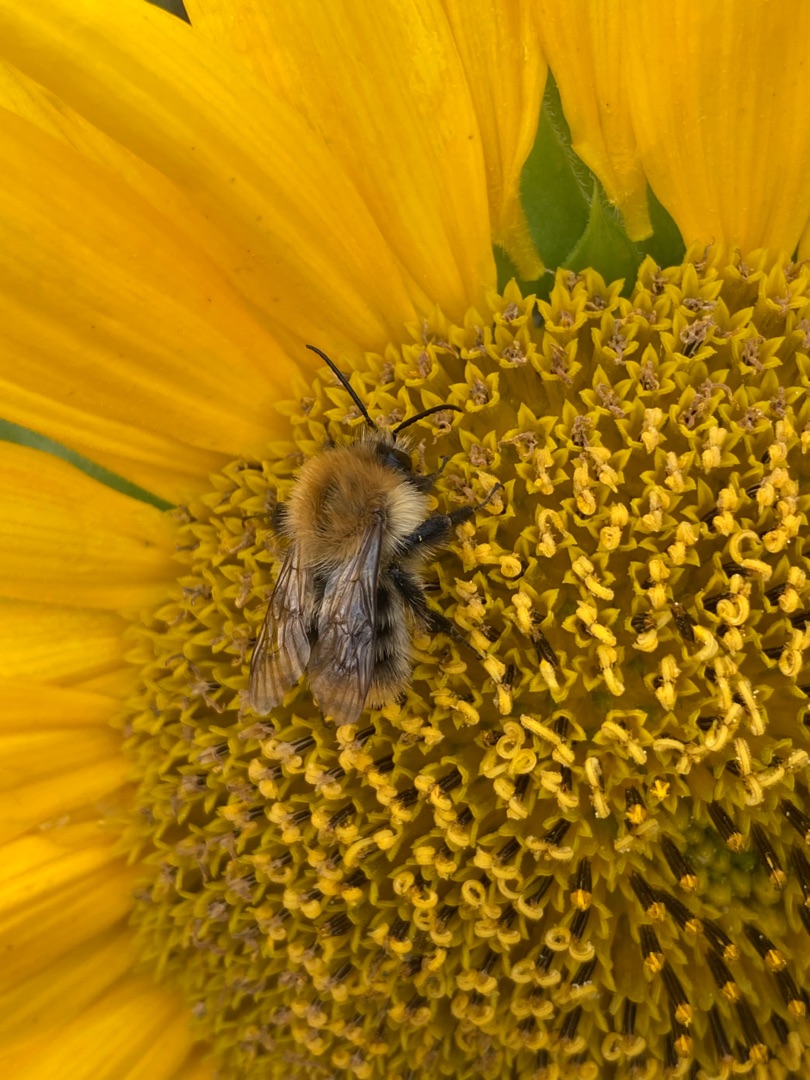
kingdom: Animalia
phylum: Arthropoda
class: Insecta
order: Hymenoptera
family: Apidae
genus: Bombus
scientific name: Bombus pascuorum
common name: Agerhumle
